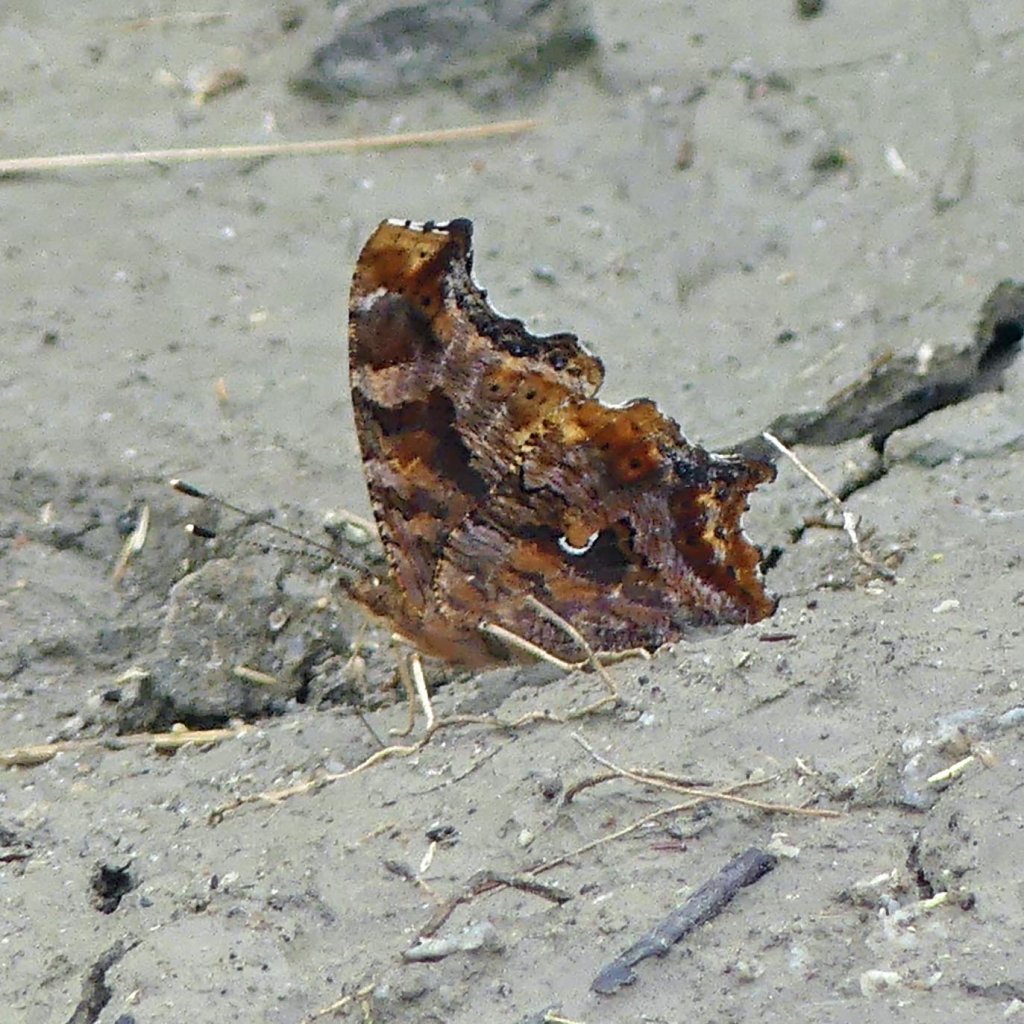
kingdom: Animalia
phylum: Arthropoda
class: Insecta
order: Lepidoptera
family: Nymphalidae
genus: Polygonia
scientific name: Polygonia comma
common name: Eastern Comma
